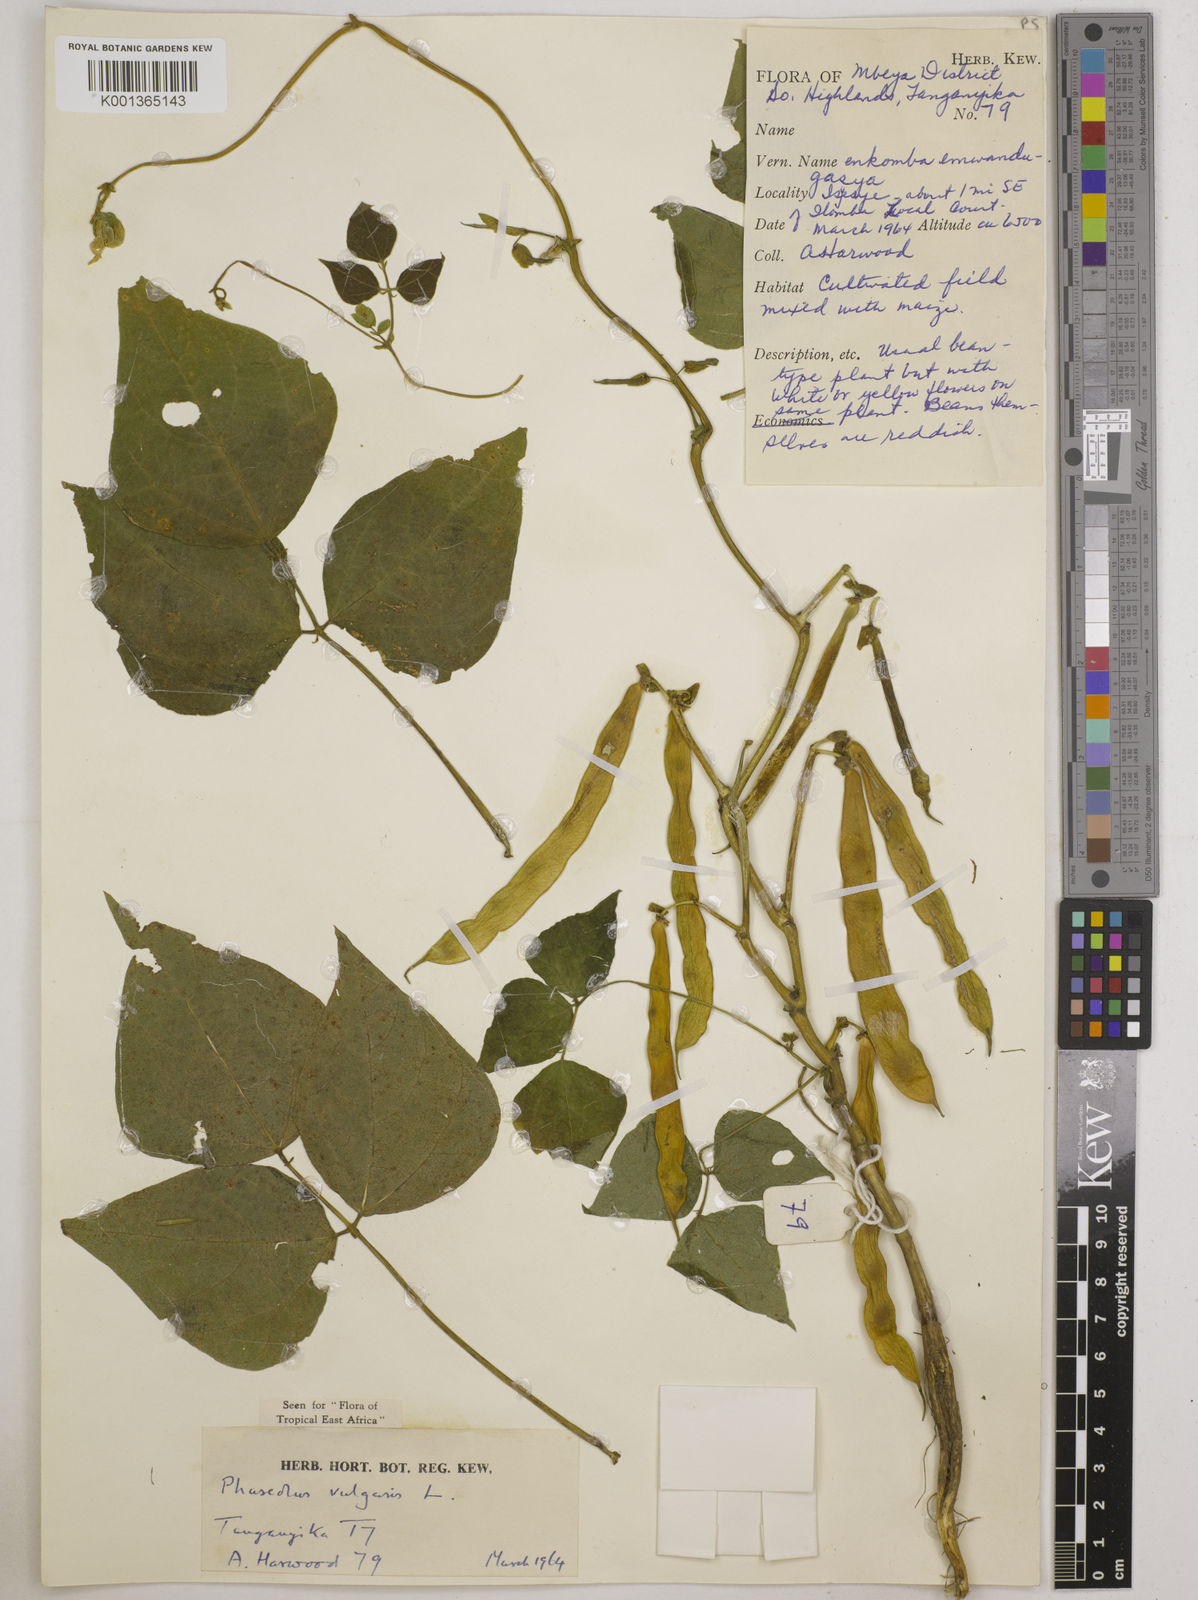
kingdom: Plantae
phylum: Tracheophyta
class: Magnoliopsida
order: Fabales
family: Fabaceae
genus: Phaseolus
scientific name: Phaseolus vulgaris
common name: Bean
